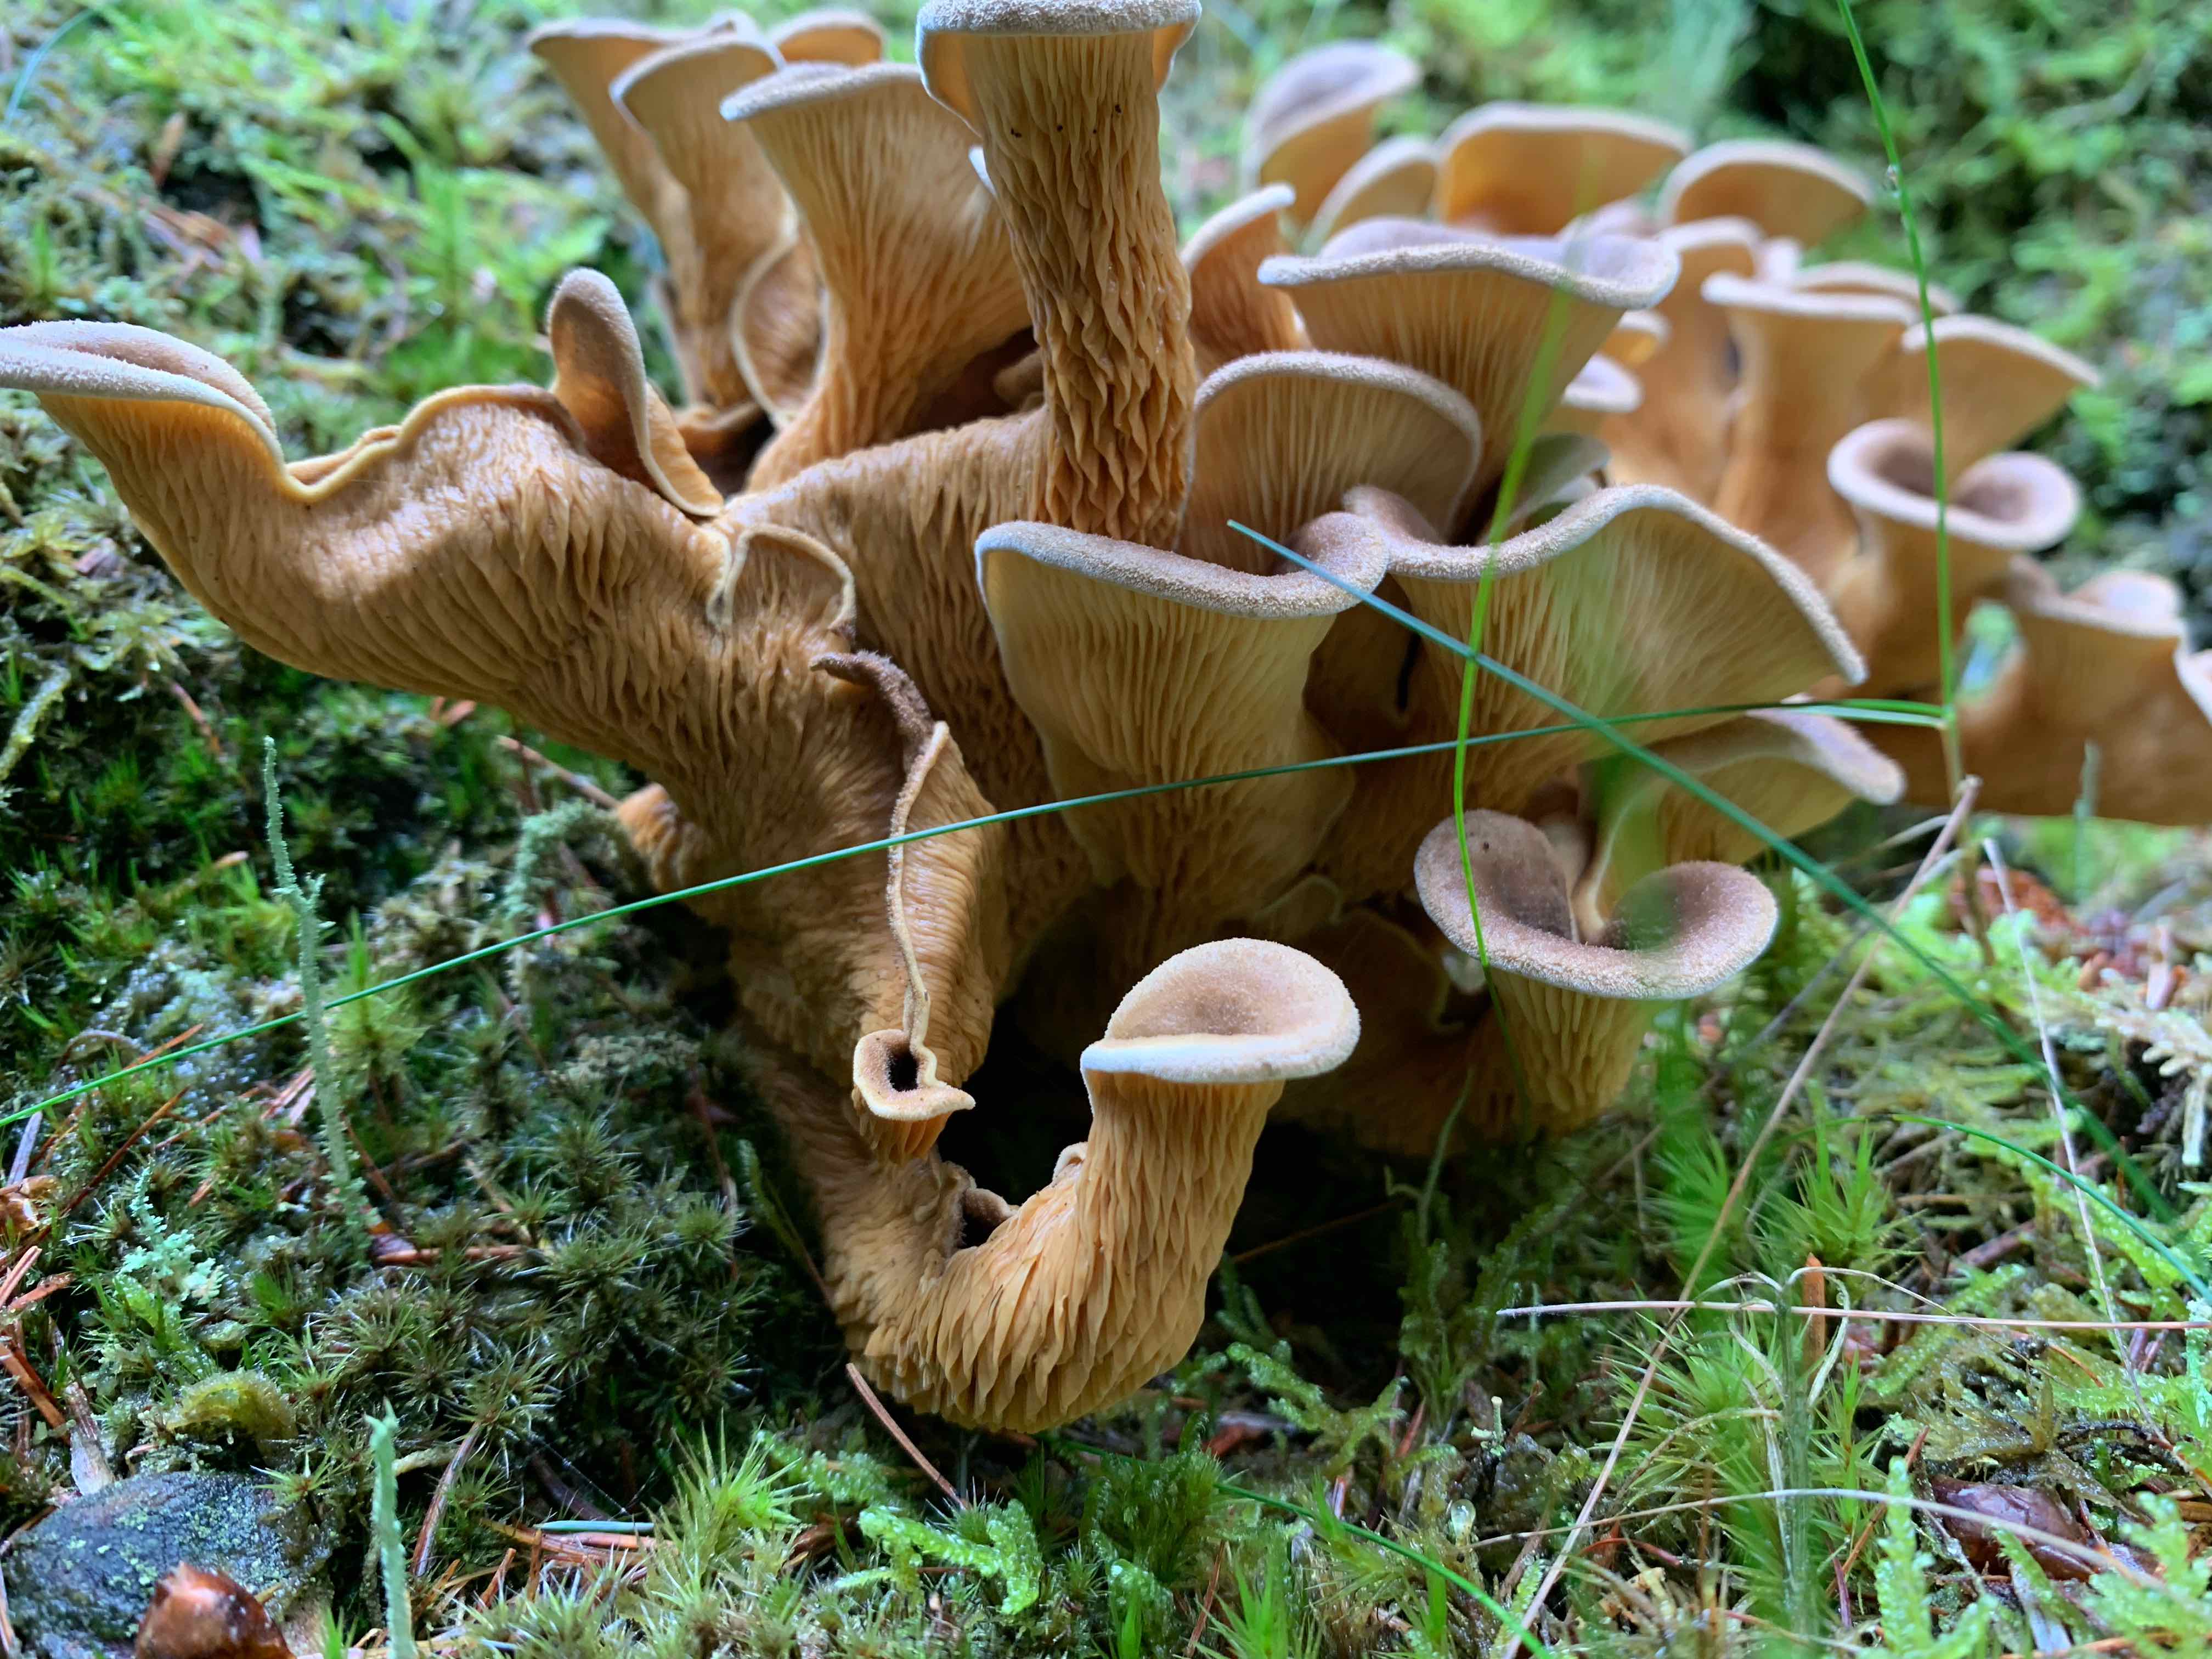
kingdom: Fungi
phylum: Basidiomycota
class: Agaricomycetes
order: Boletales
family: Tapinellaceae
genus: Tapinella
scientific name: Tapinella panuoides
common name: tømmer-viftesvamp
